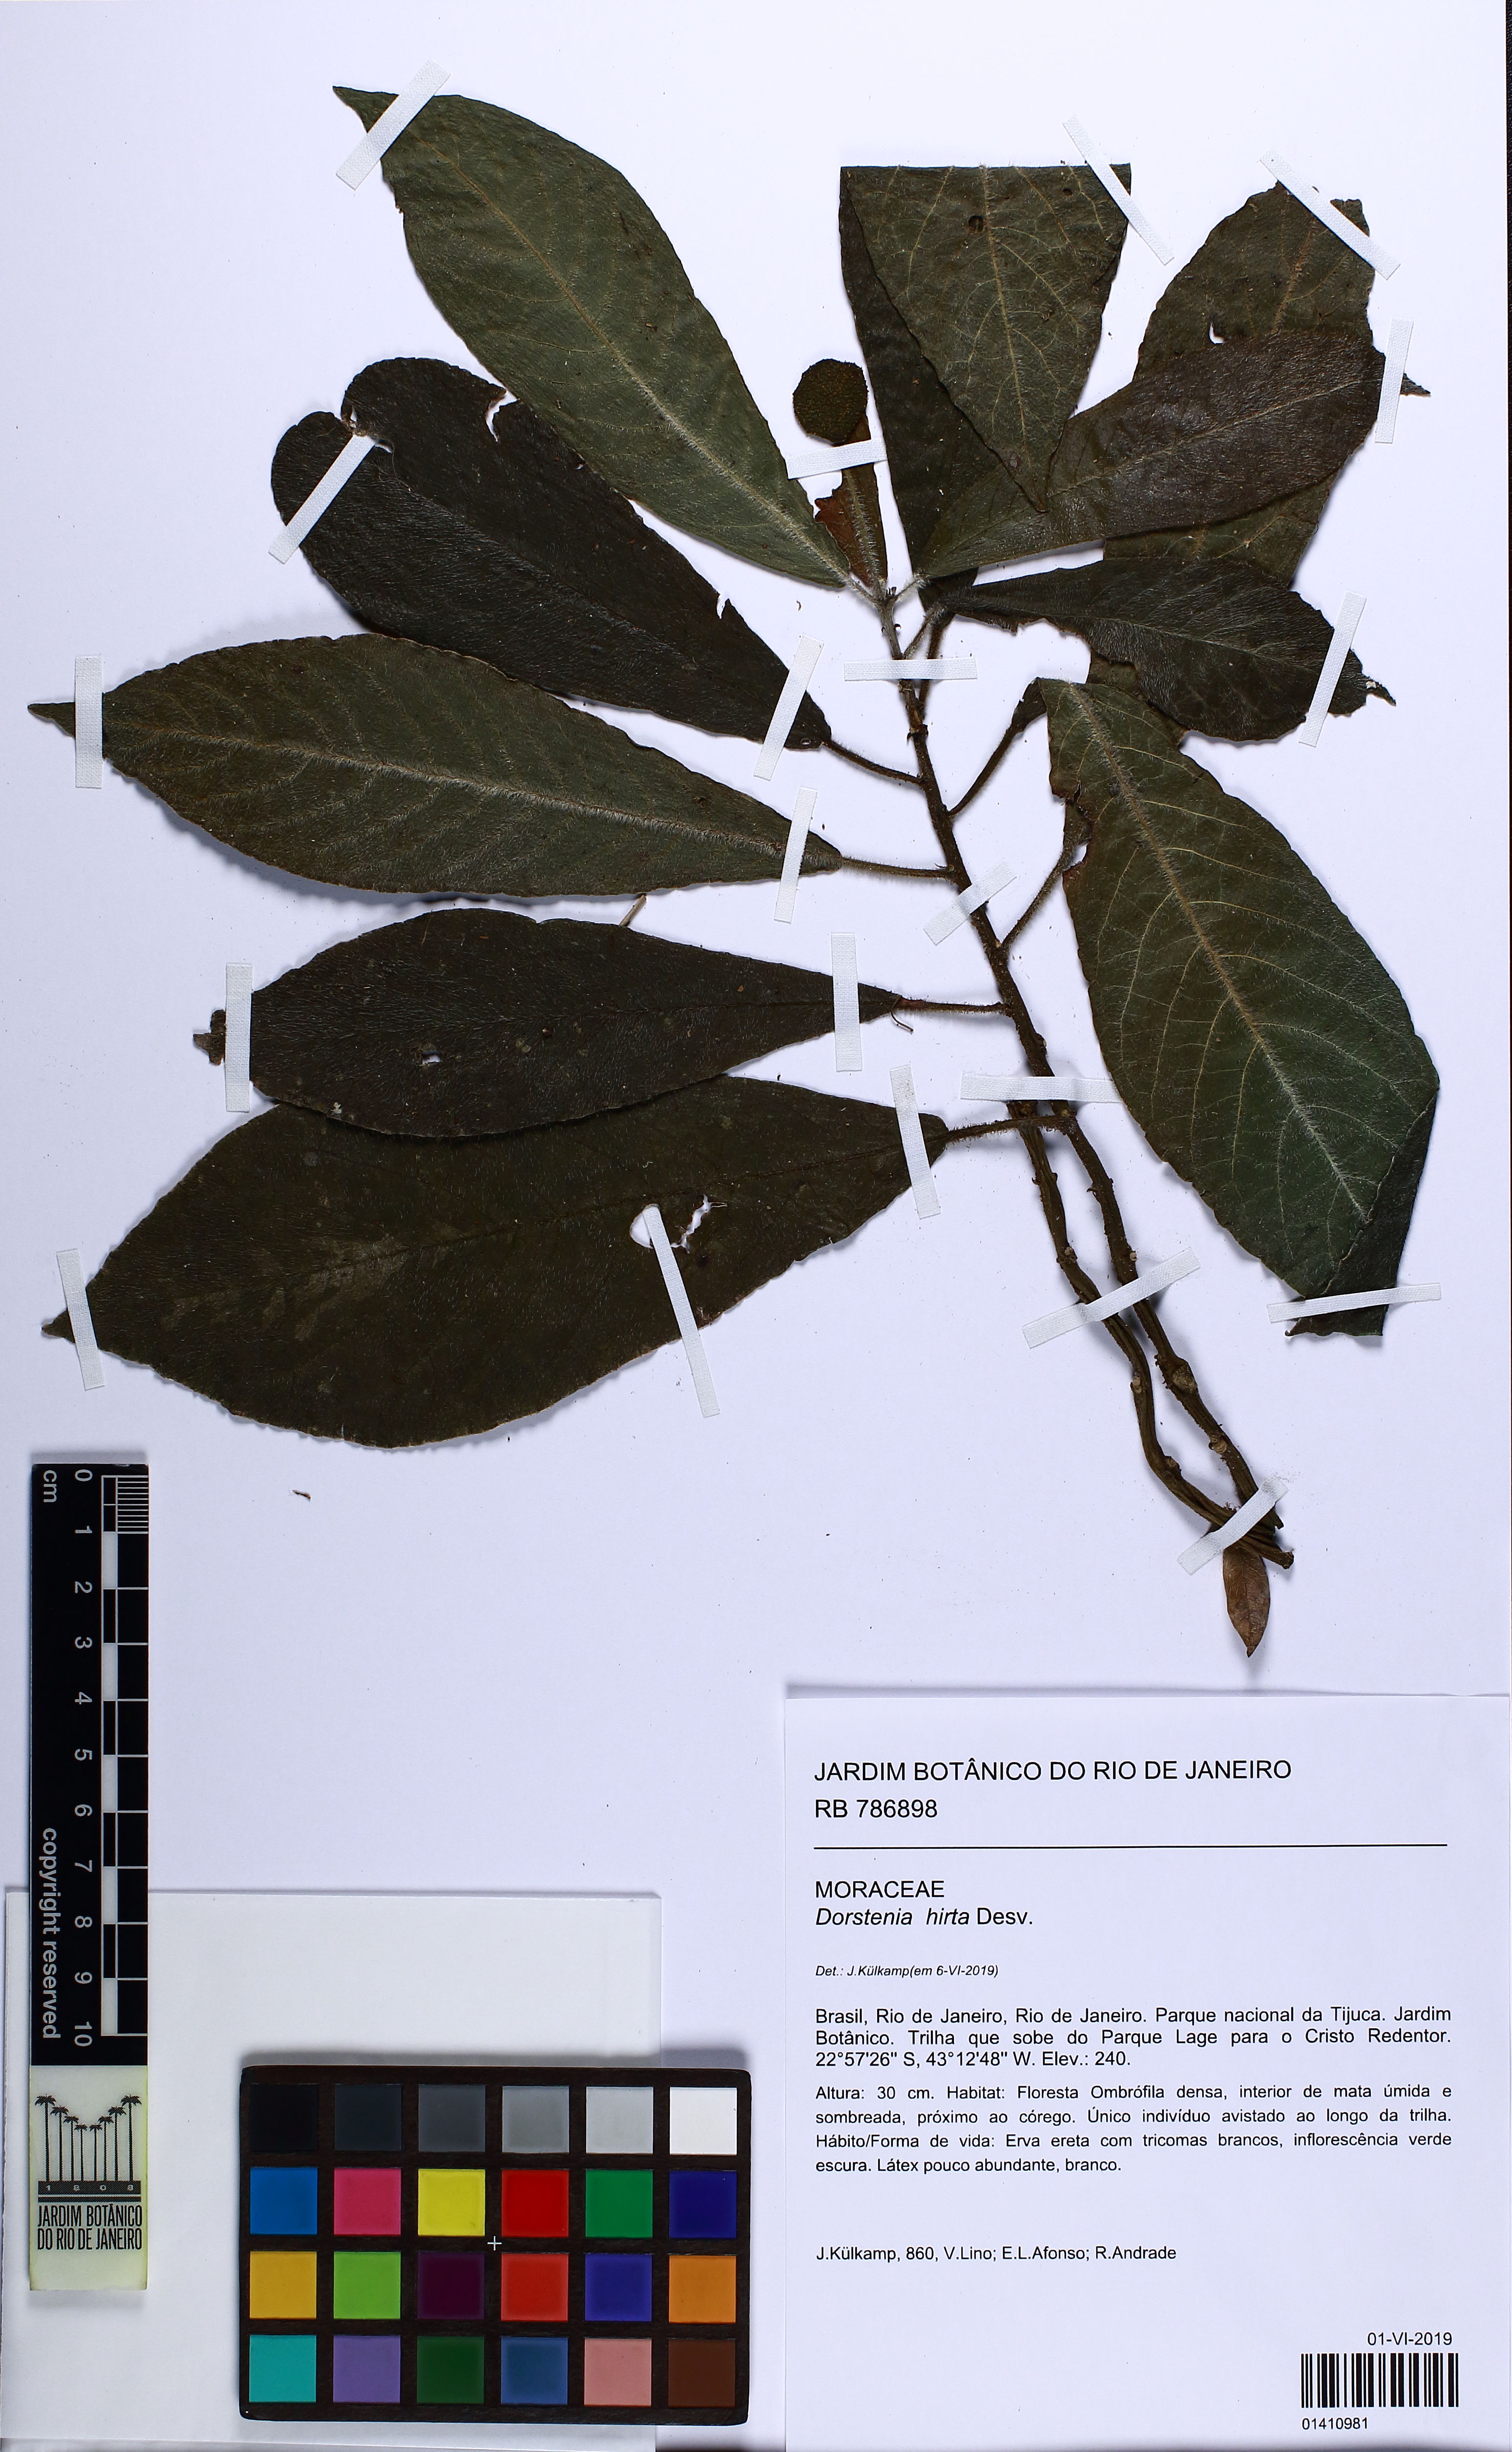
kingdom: Plantae
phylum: Tracheophyta
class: Magnoliopsida
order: Rosales
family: Moraceae
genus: Dorstenia
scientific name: Dorstenia hirta
